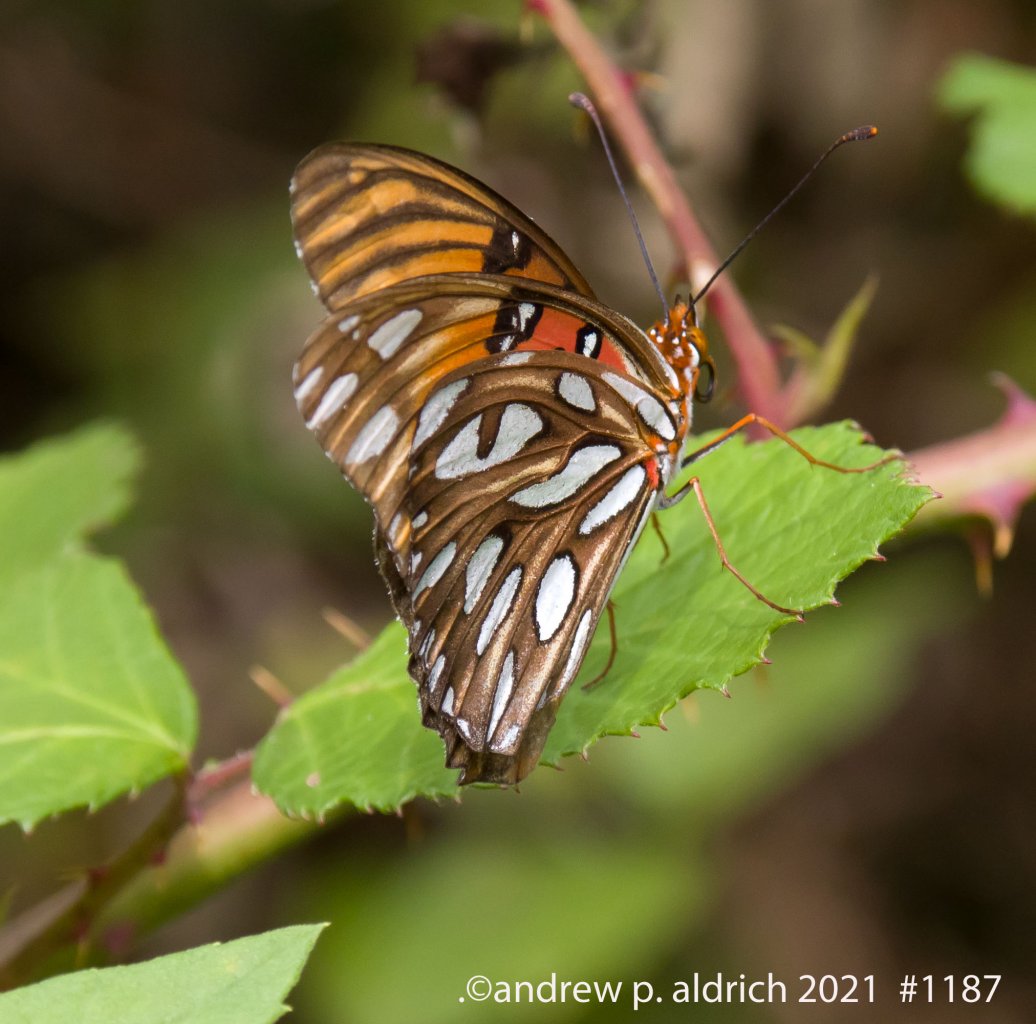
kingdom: Animalia
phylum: Arthropoda
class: Insecta
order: Lepidoptera
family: Nymphalidae
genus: Dione
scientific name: Dione vanillae
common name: Gulf Fritillary
